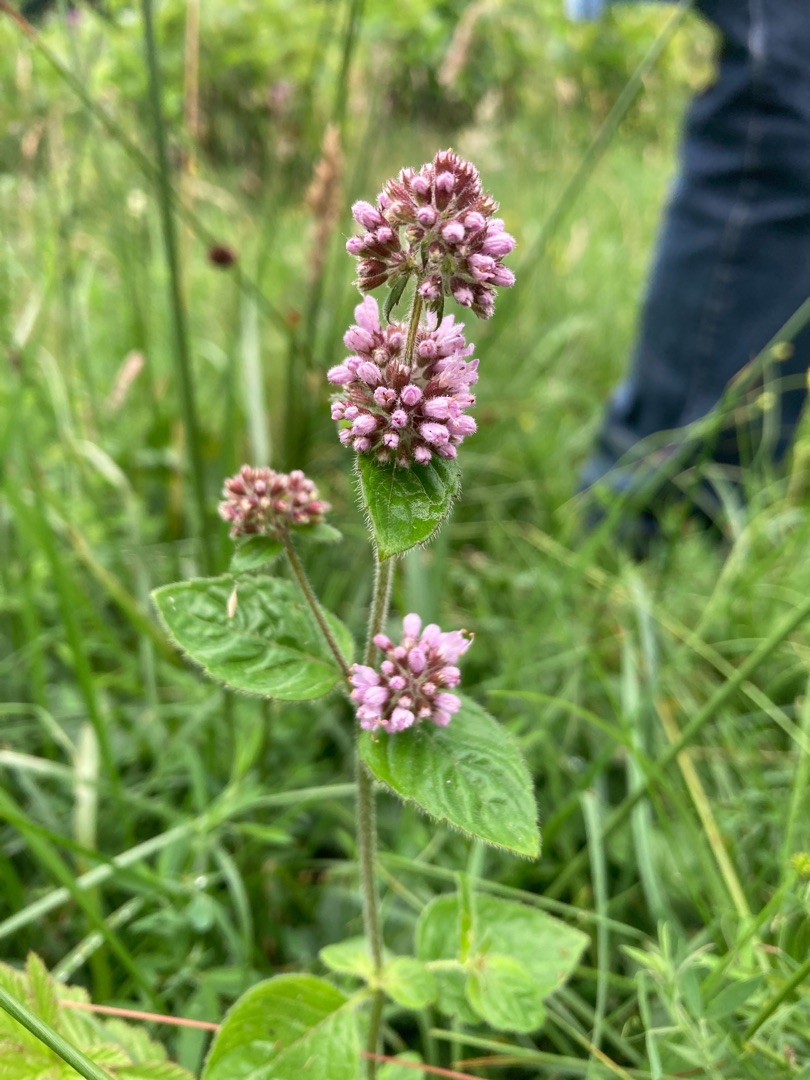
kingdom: Plantae
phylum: Tracheophyta
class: Magnoliopsida
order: Lamiales
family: Lamiaceae
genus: Mentha
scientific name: Mentha aquatica
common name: Vand-mynte
